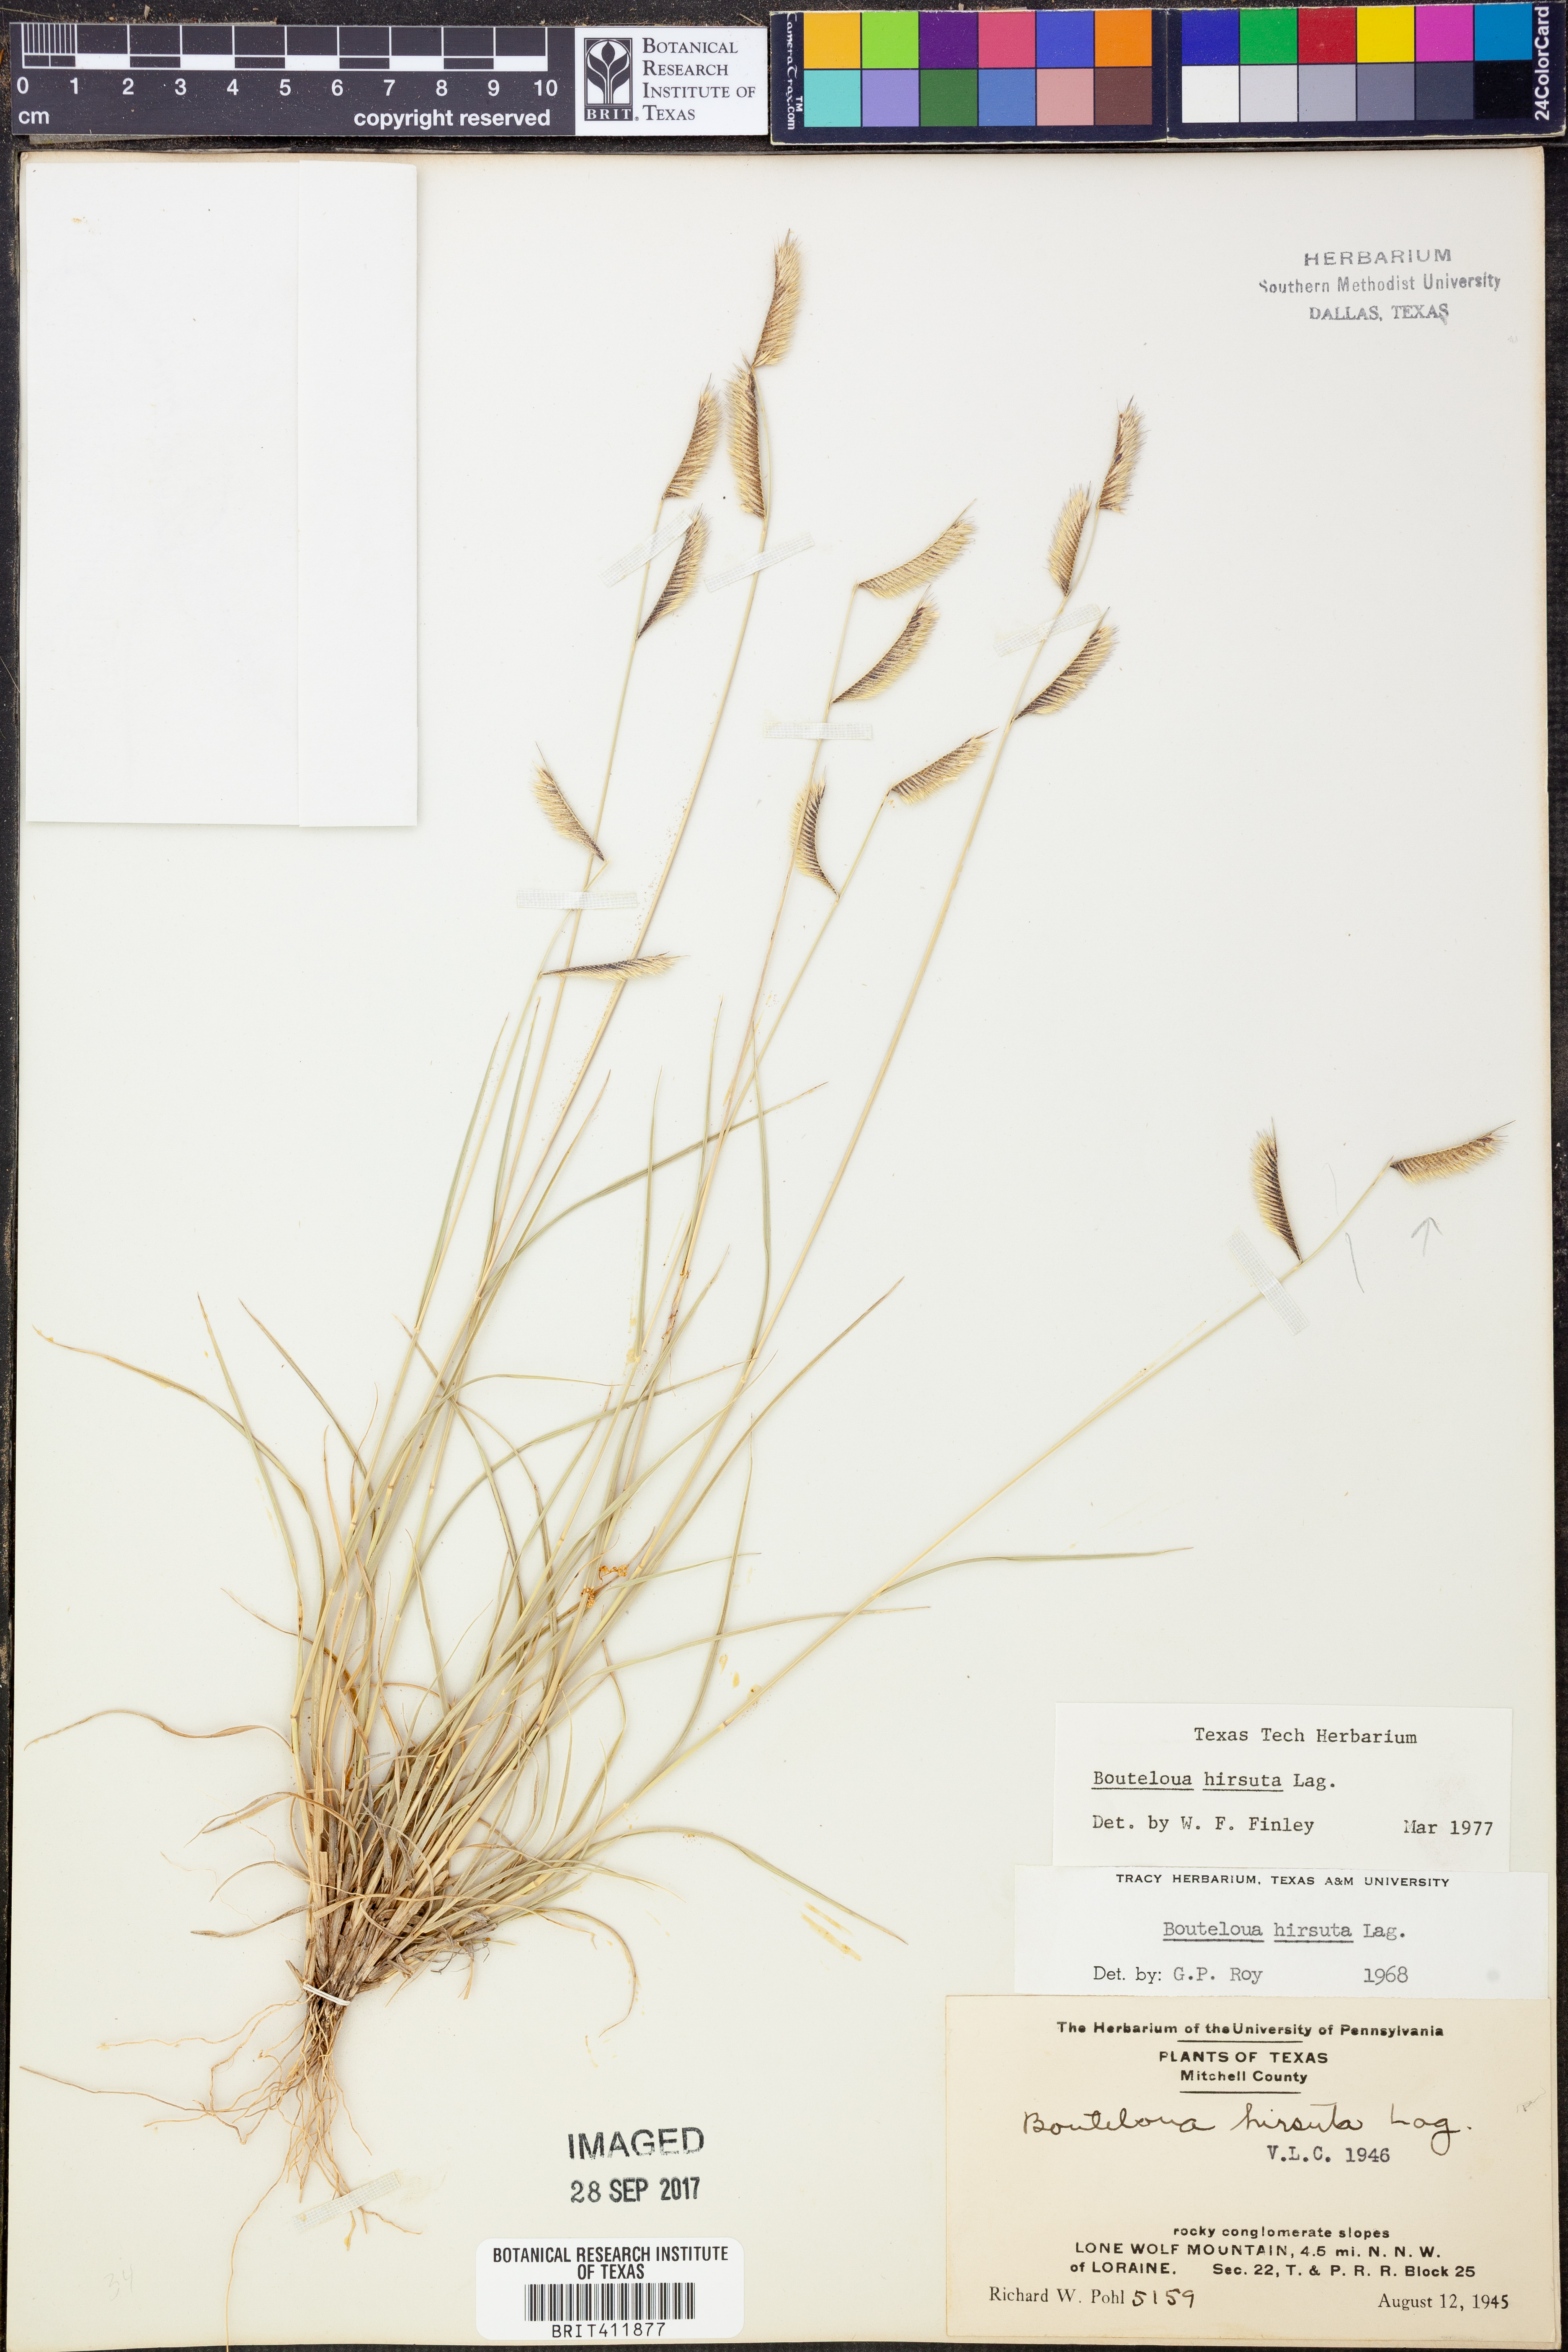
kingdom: Plantae
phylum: Tracheophyta
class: Liliopsida
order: Poales
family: Poaceae
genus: Bouteloua
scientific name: Bouteloua hirsuta
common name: Hairy grama
